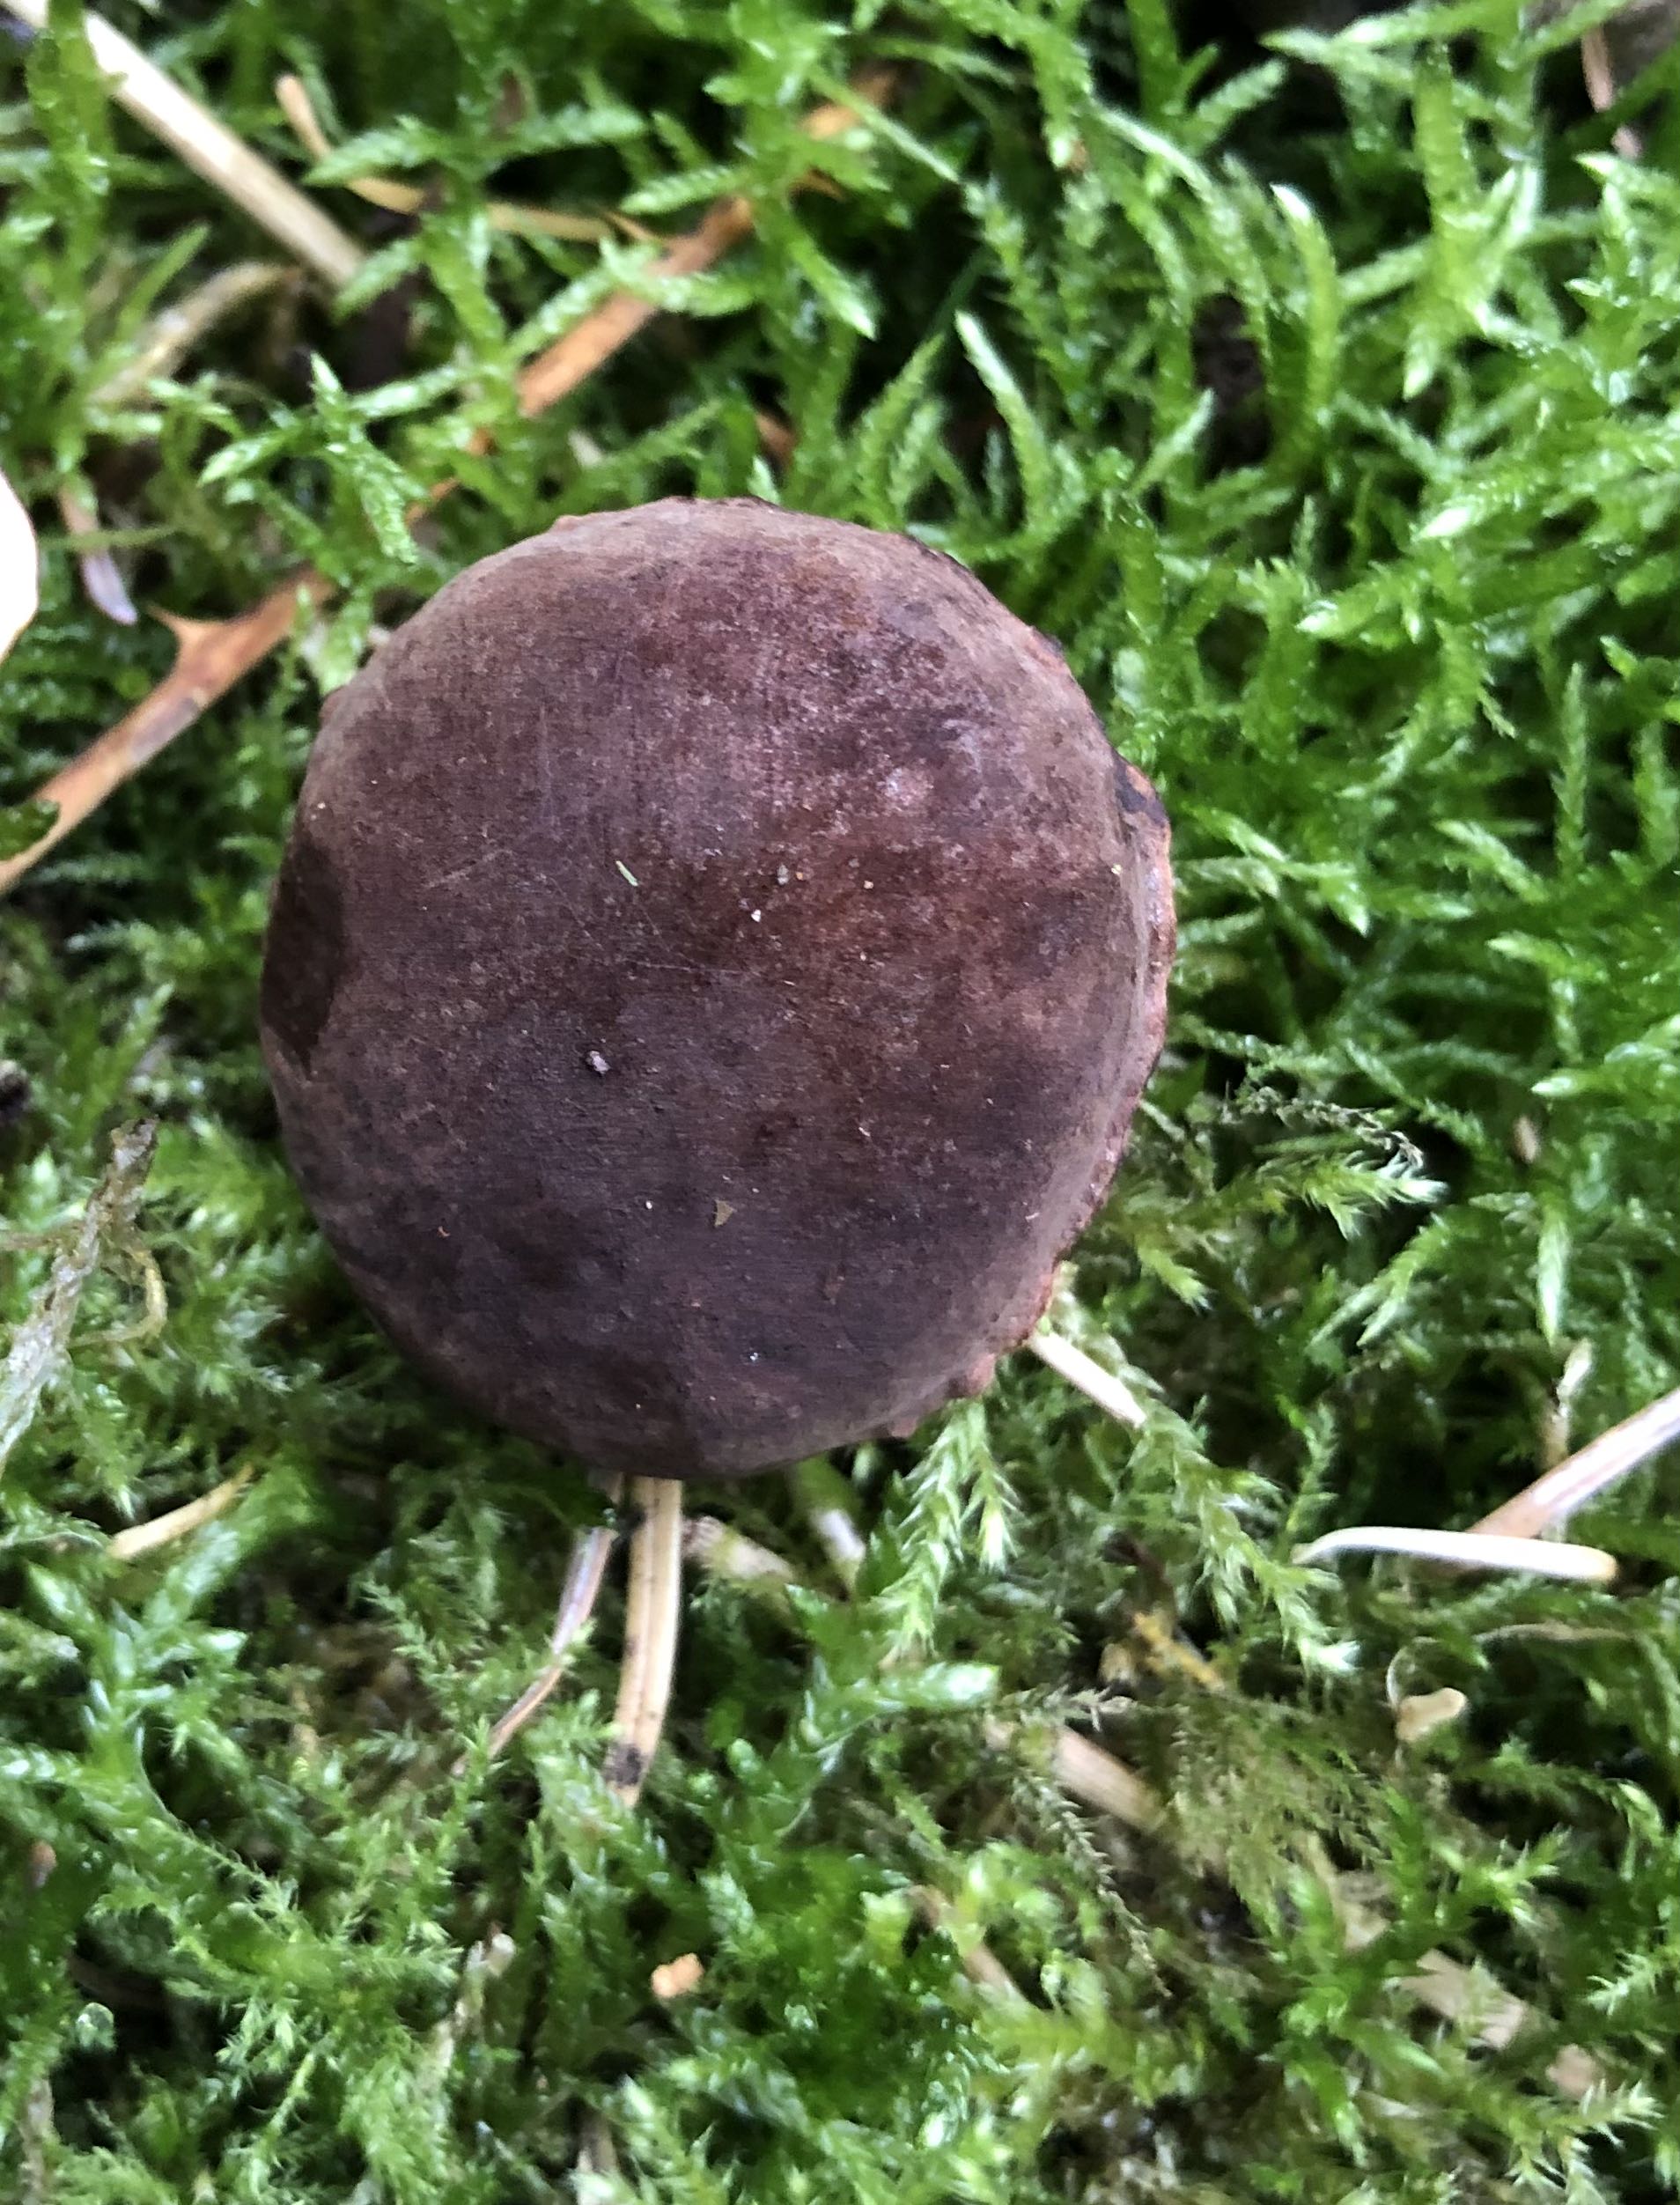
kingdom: Fungi
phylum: Basidiomycota
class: Agaricomycetes
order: Boletales
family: Boletaceae
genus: Imleria
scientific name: Imleria badia
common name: brunstokket rørhat
